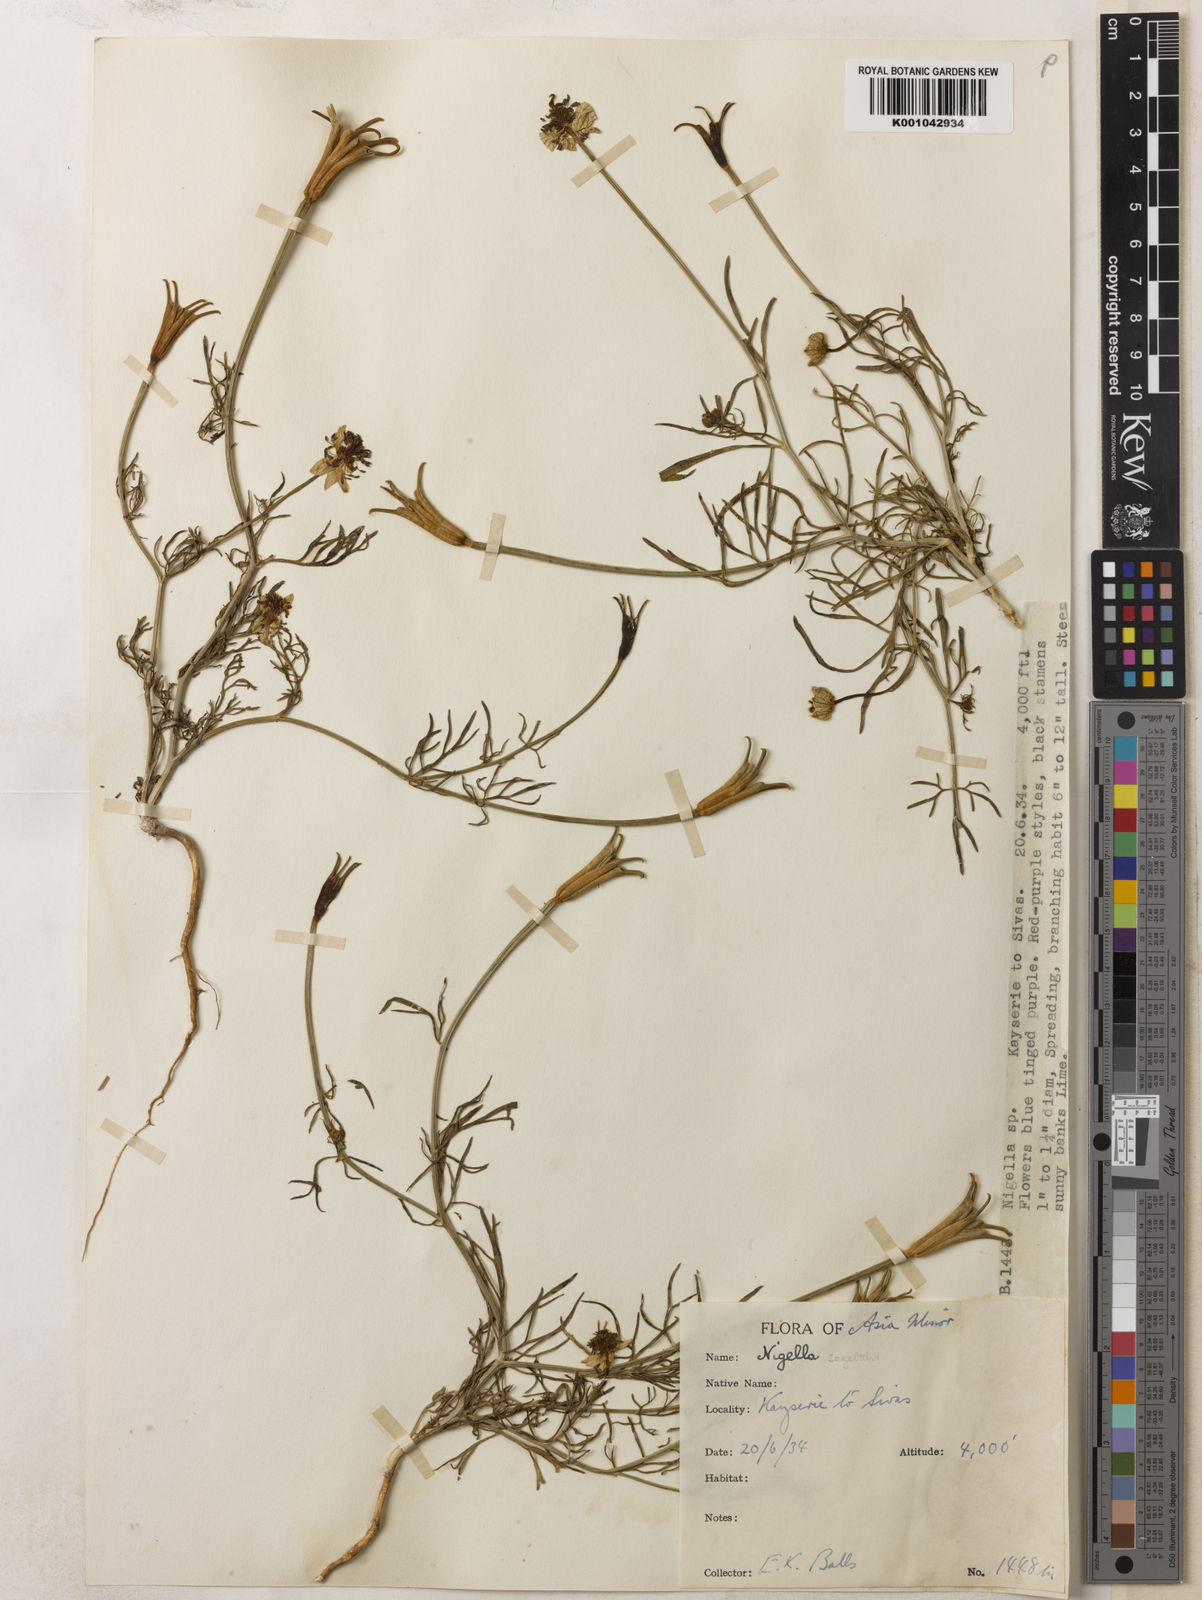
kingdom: Plantae
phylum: Tracheophyta
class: Magnoliopsida
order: Ranunculales
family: Ranunculaceae
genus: Nigella
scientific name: Nigella segetalis
